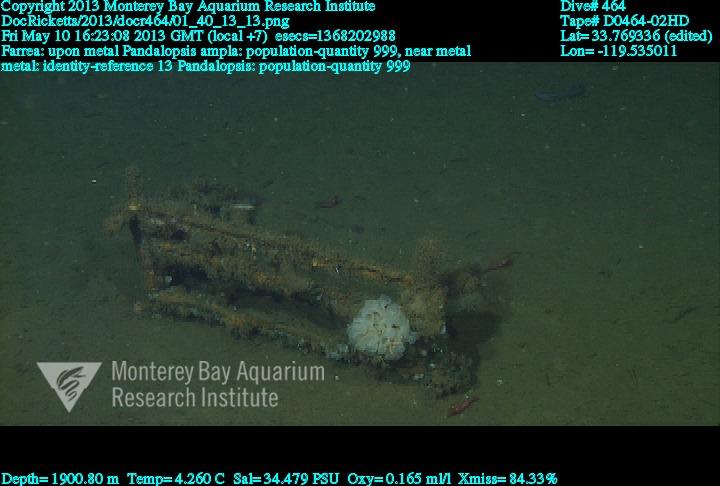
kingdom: Animalia
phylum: Porifera
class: Hexactinellida
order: Sceptrulophora
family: Farreidae
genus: Farrea
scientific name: Farrea
